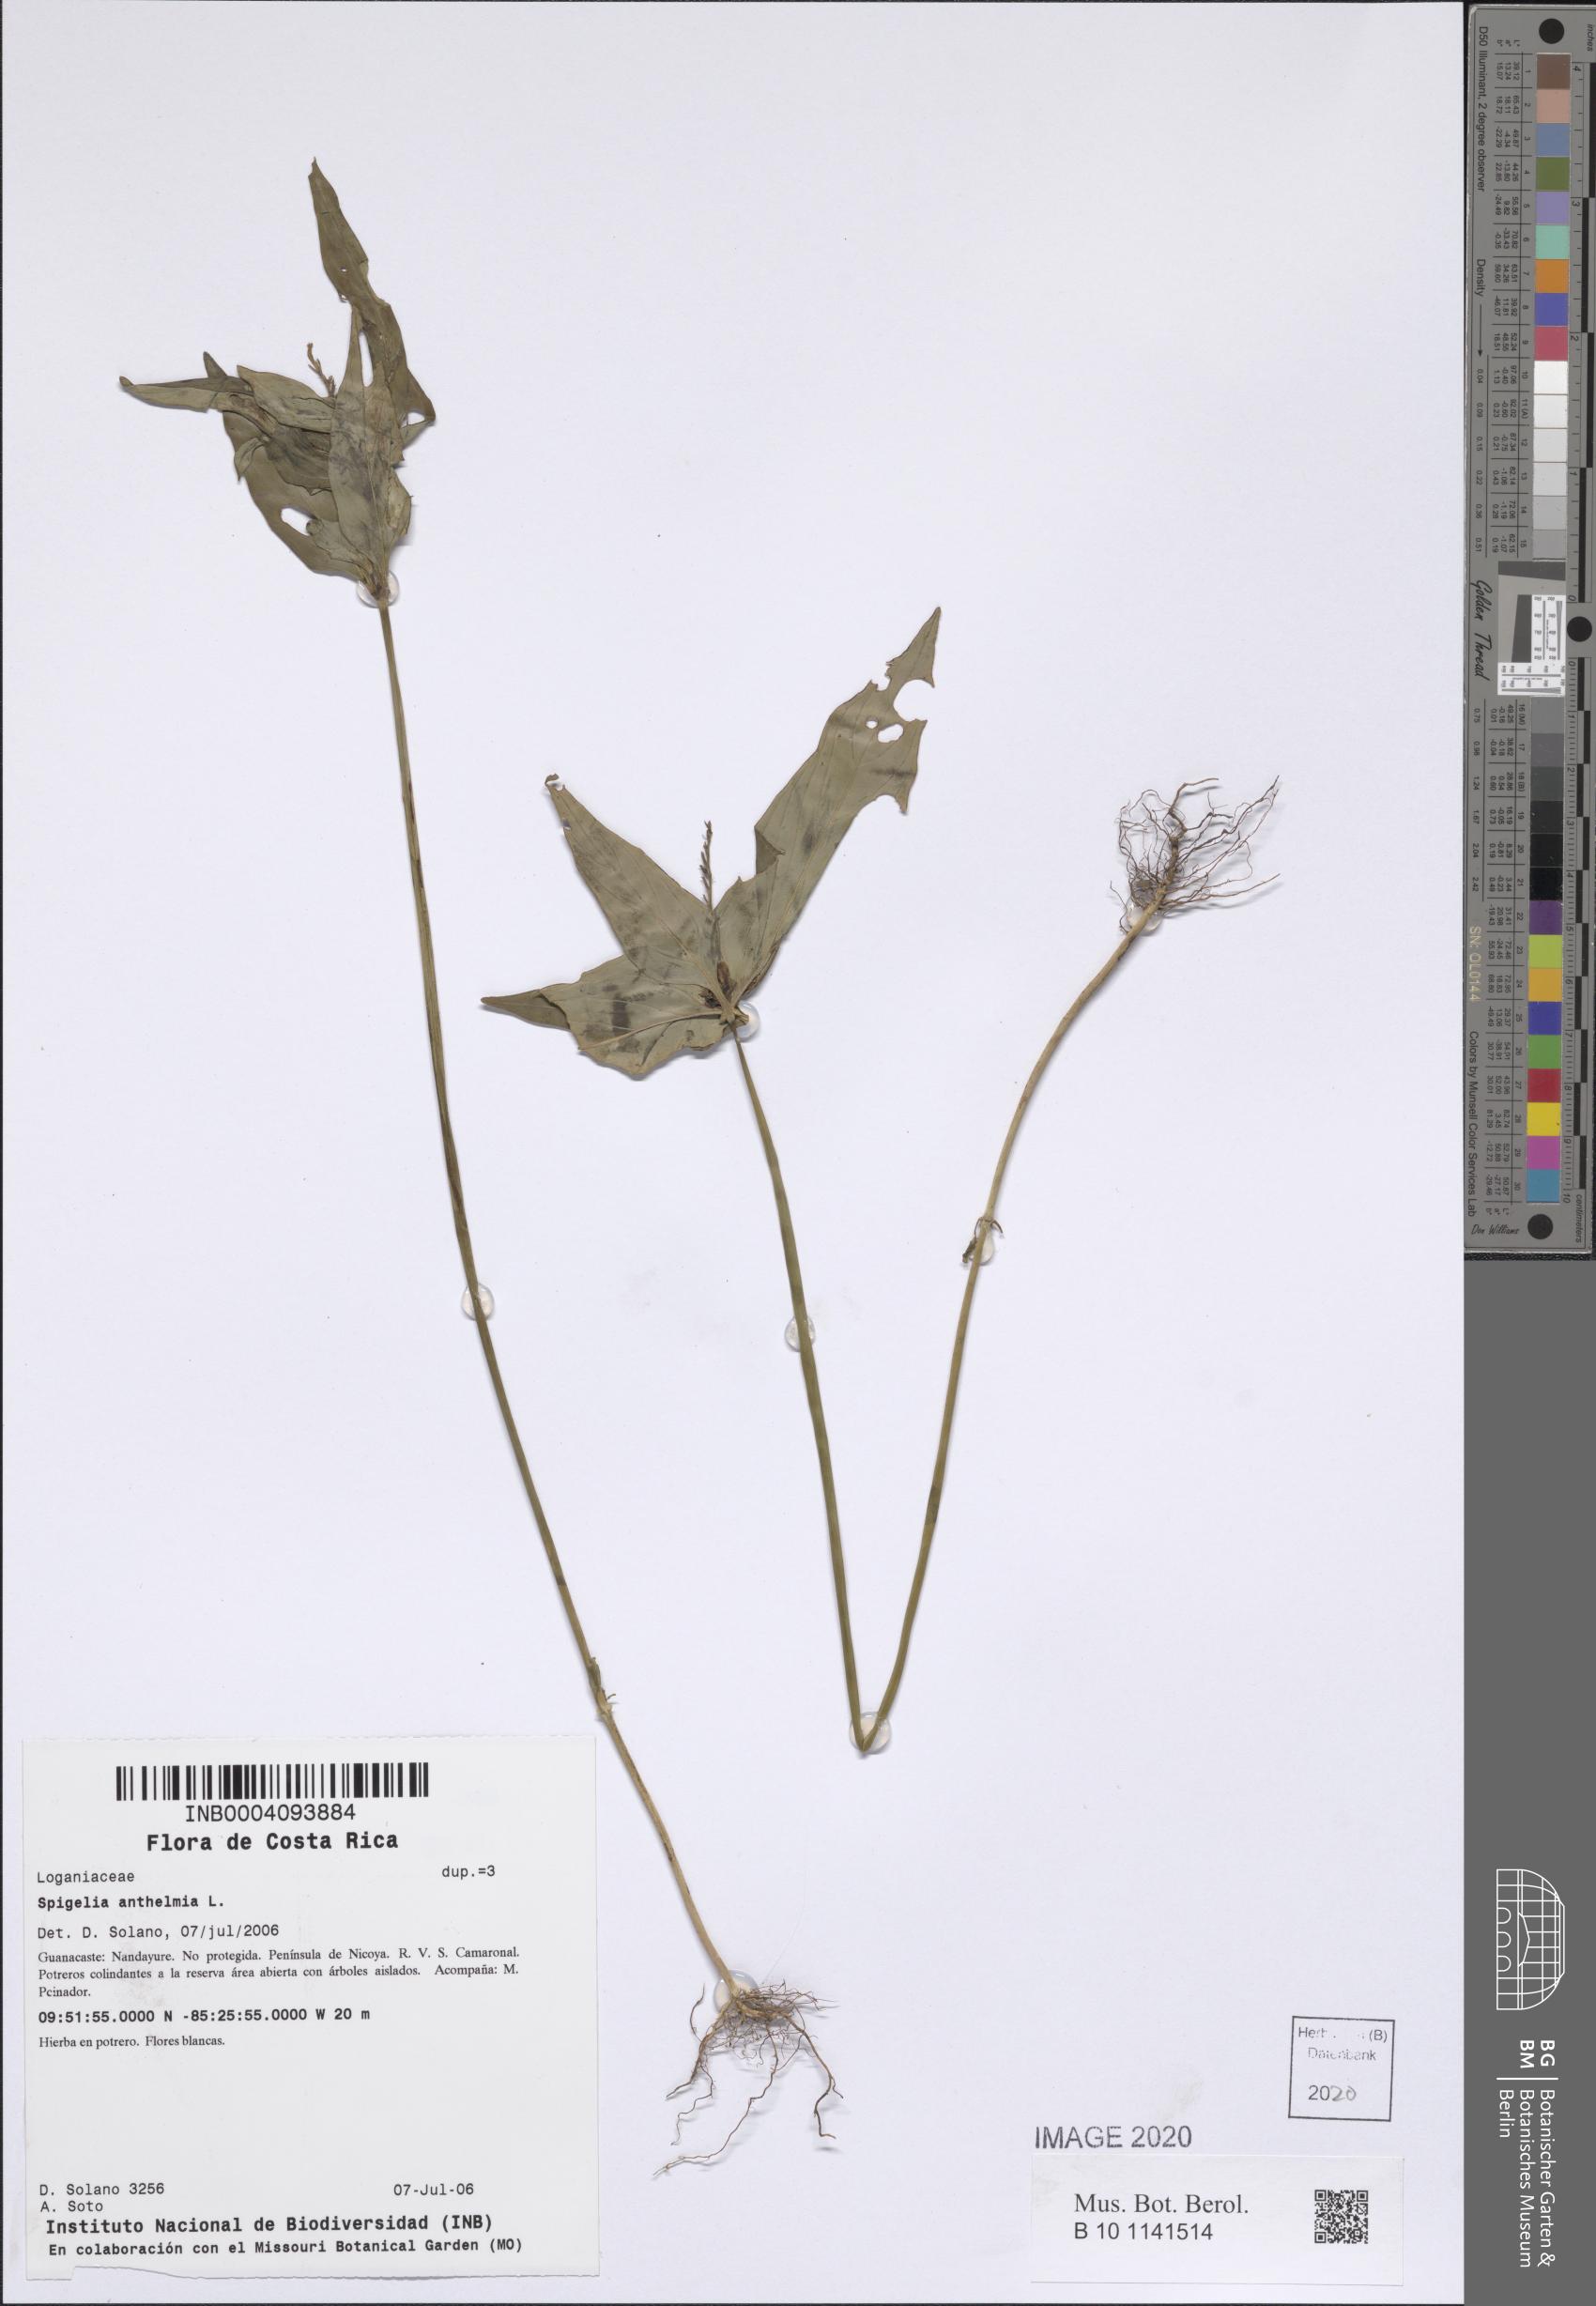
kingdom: Plantae
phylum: Tracheophyta
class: Magnoliopsida
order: Gentianales
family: Loganiaceae
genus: Spigelia
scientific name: Spigelia anthelmia
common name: West indian-pink
